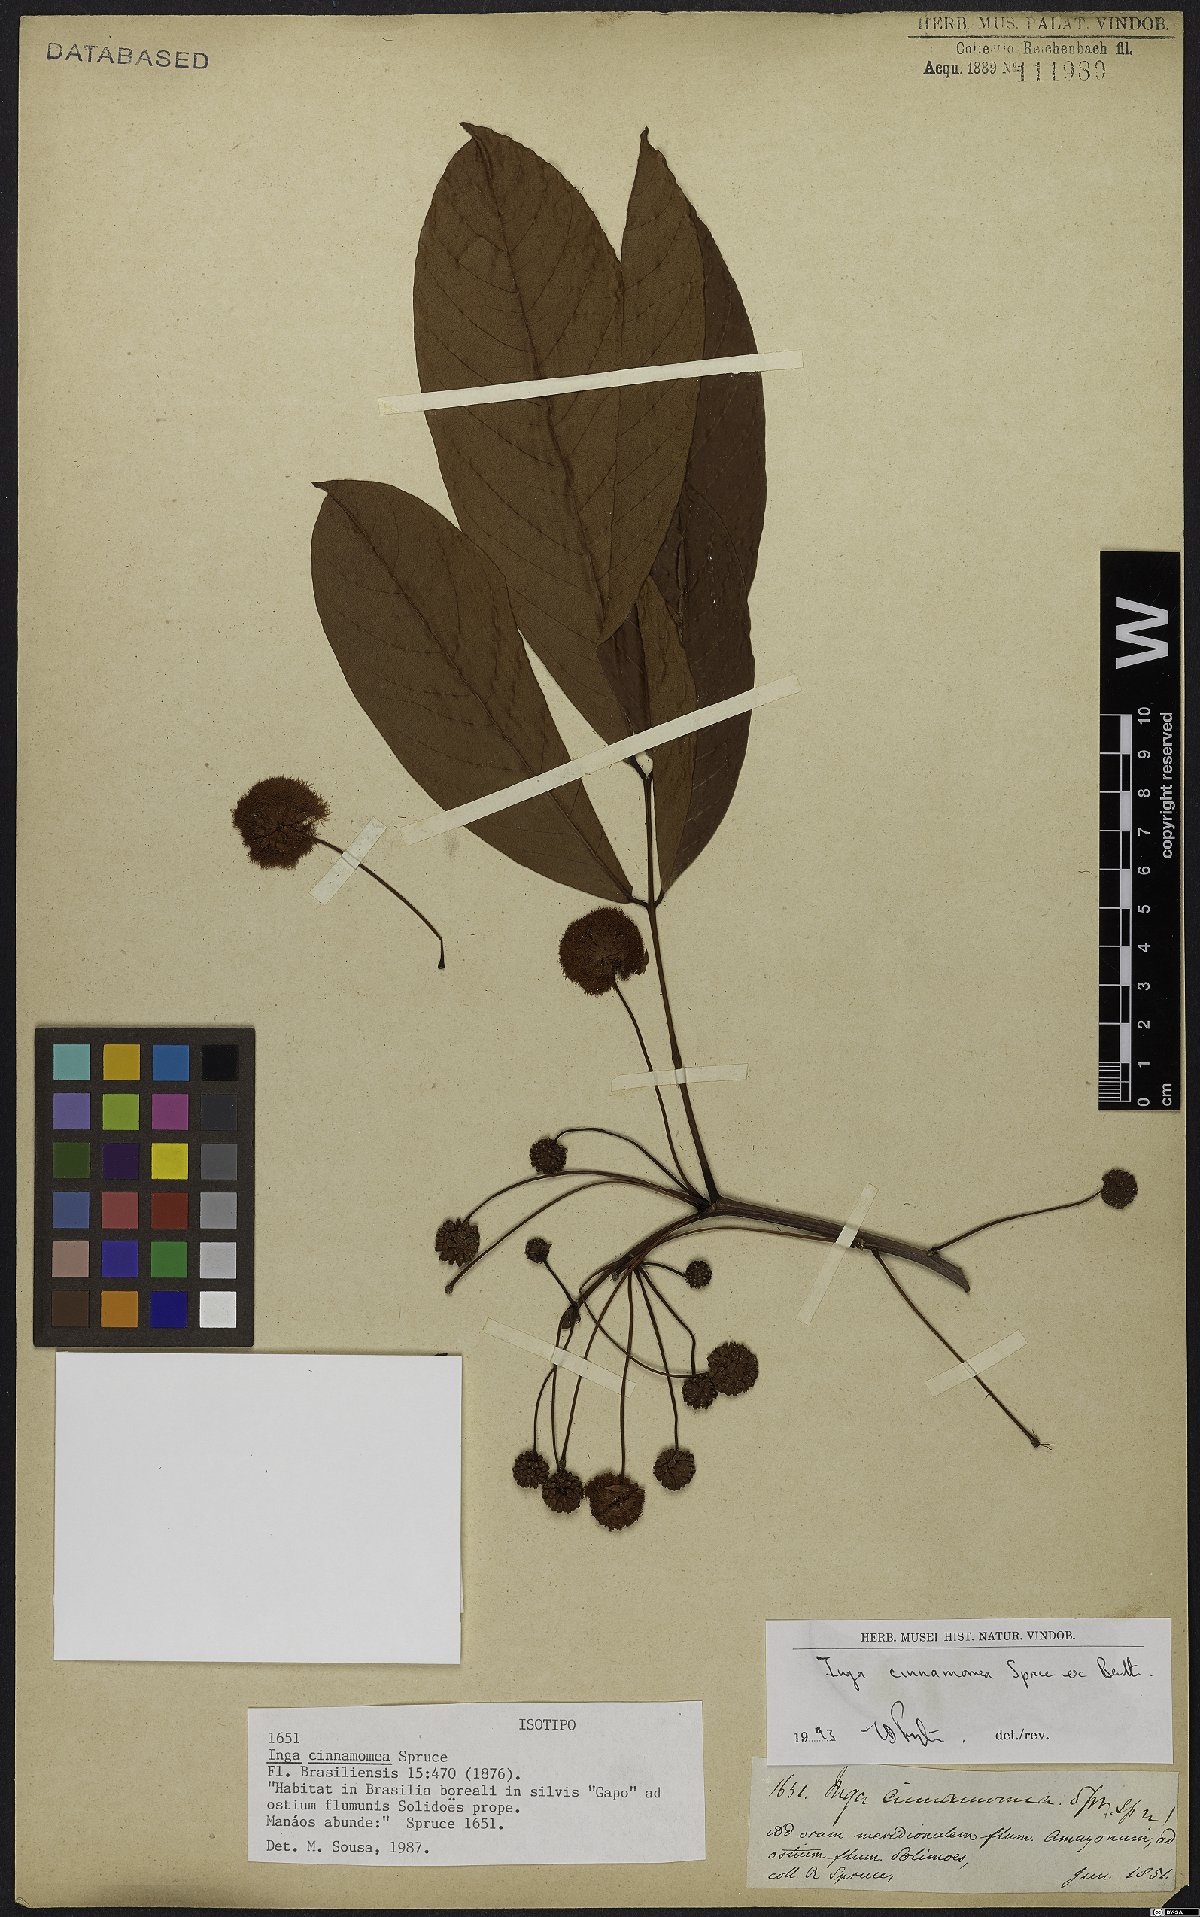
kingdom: Plantae
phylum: Tracheophyta
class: Magnoliopsida
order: Fabales
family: Fabaceae
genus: Inga
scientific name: Inga cinnamomea
